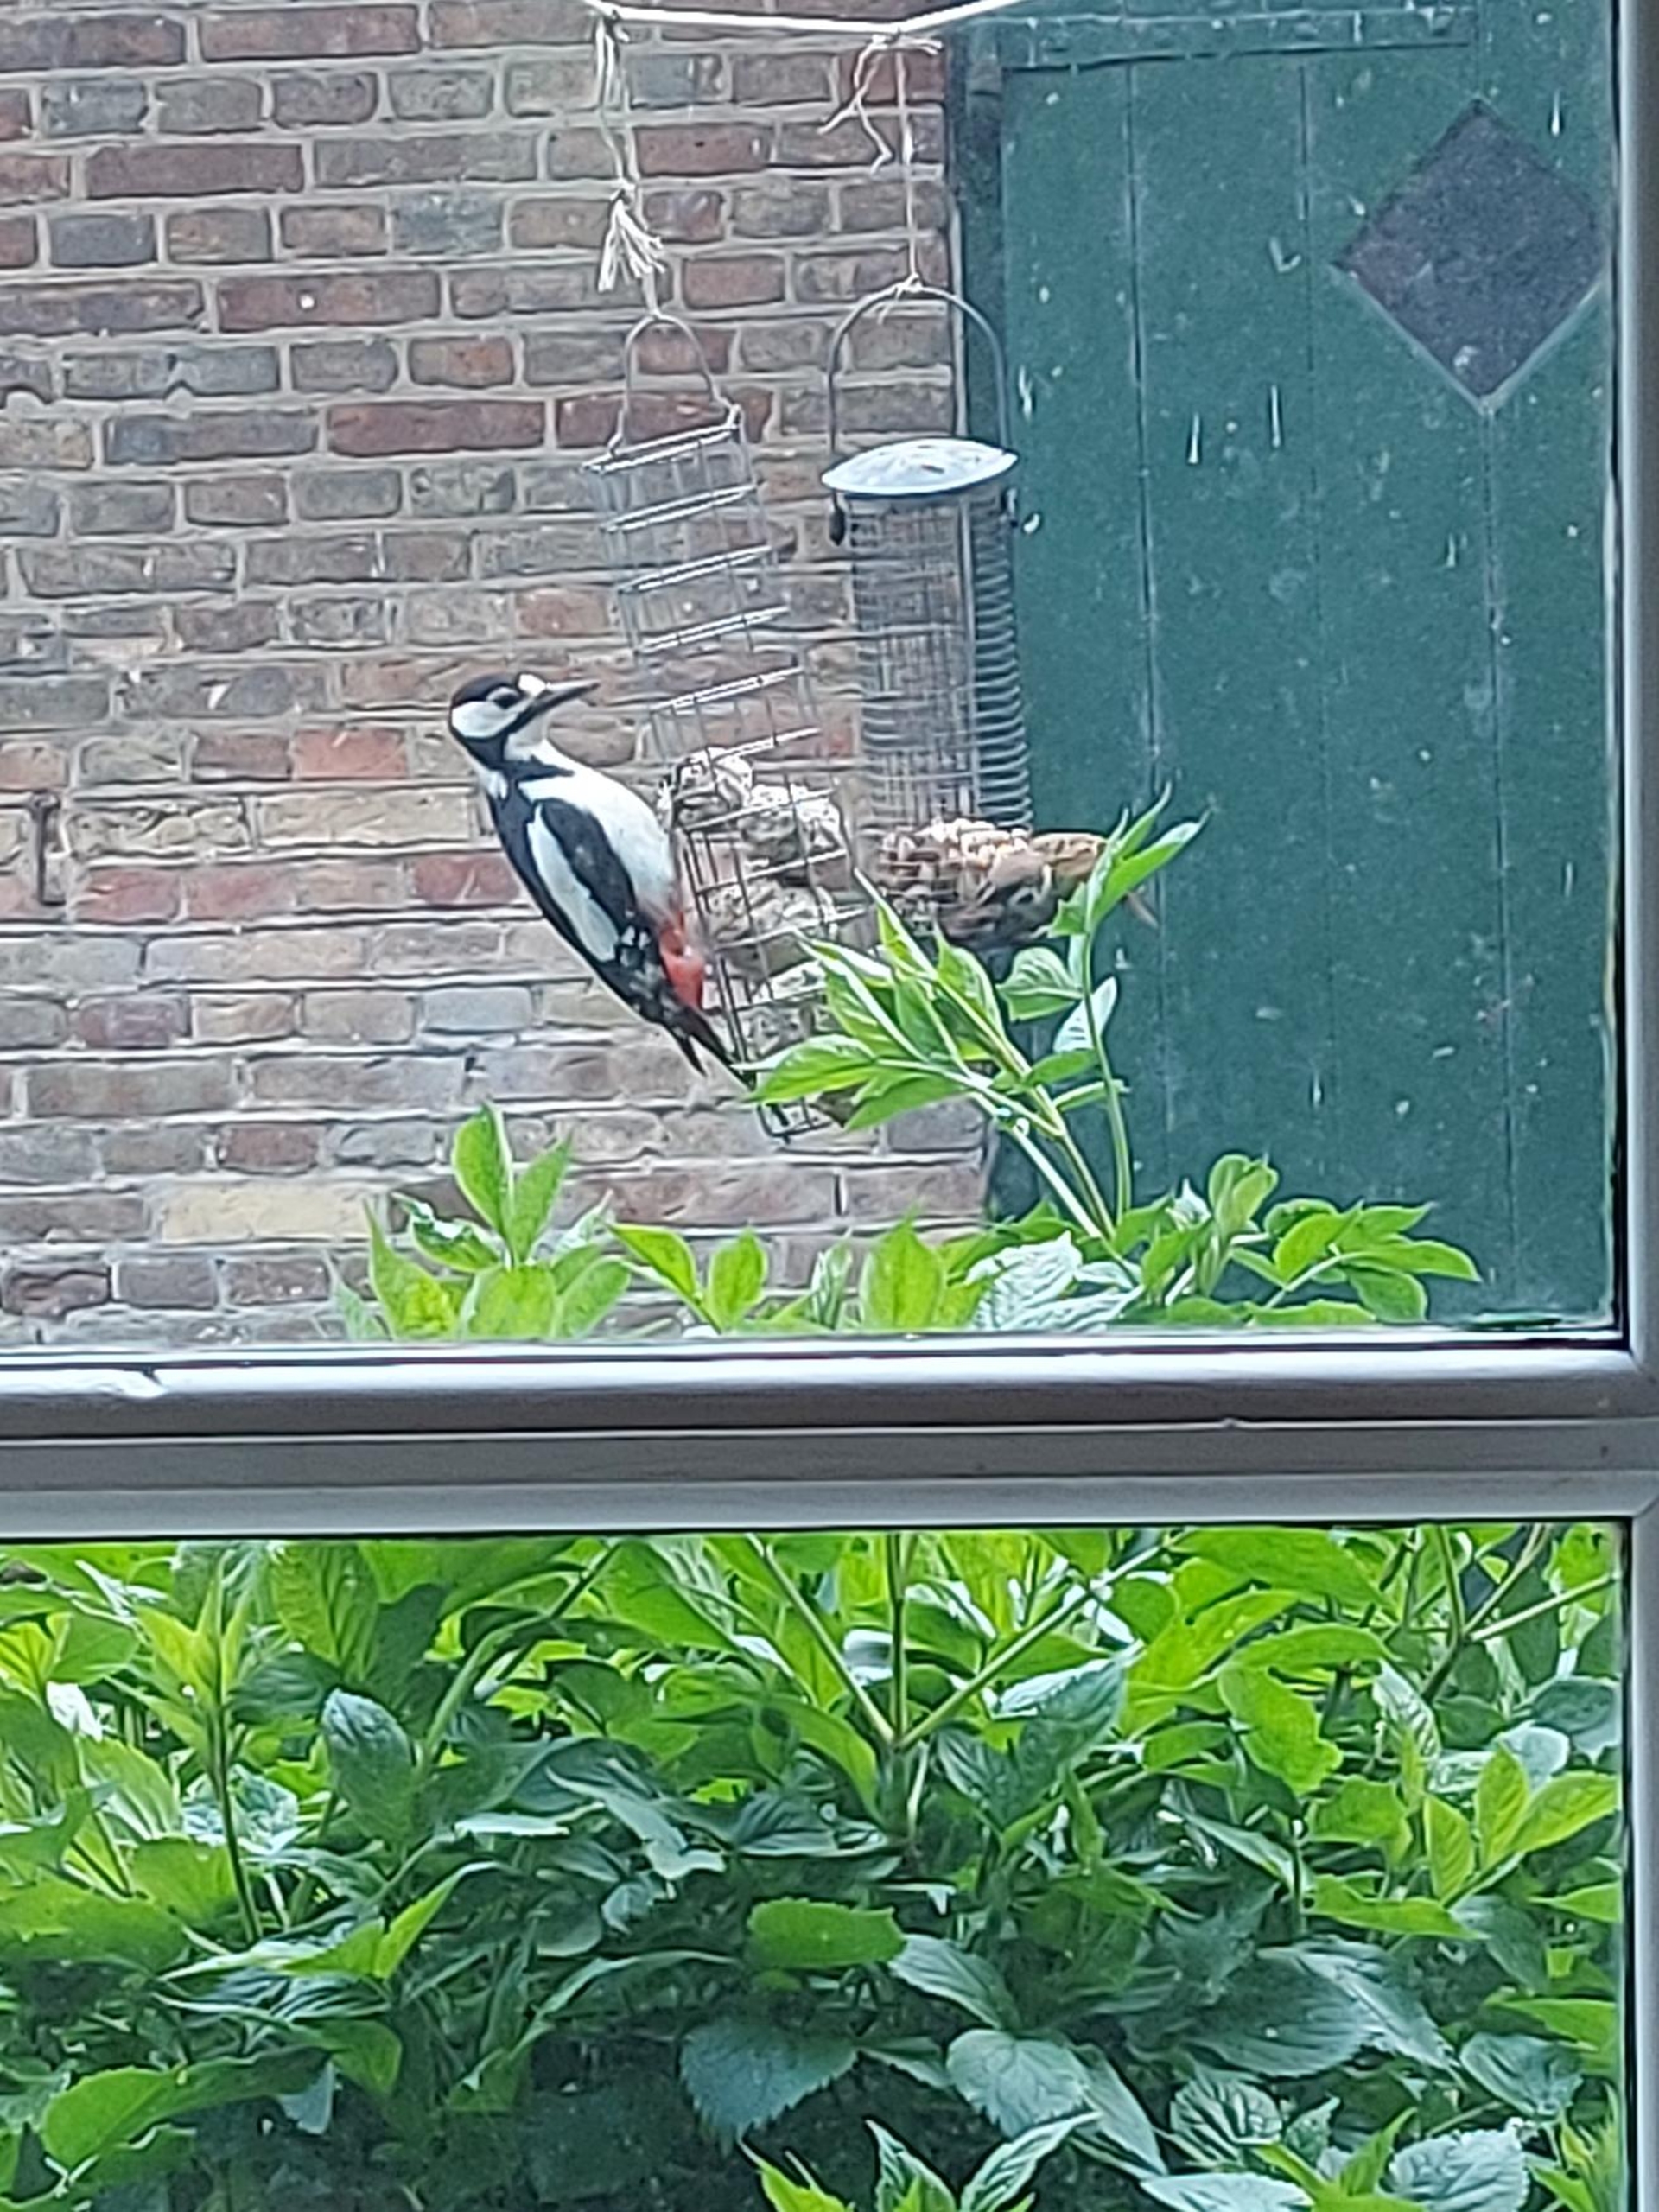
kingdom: Animalia
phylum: Chordata
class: Aves
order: Piciformes
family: Picidae
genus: Dendrocopos
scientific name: Dendrocopos major
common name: Stor flagspætte
